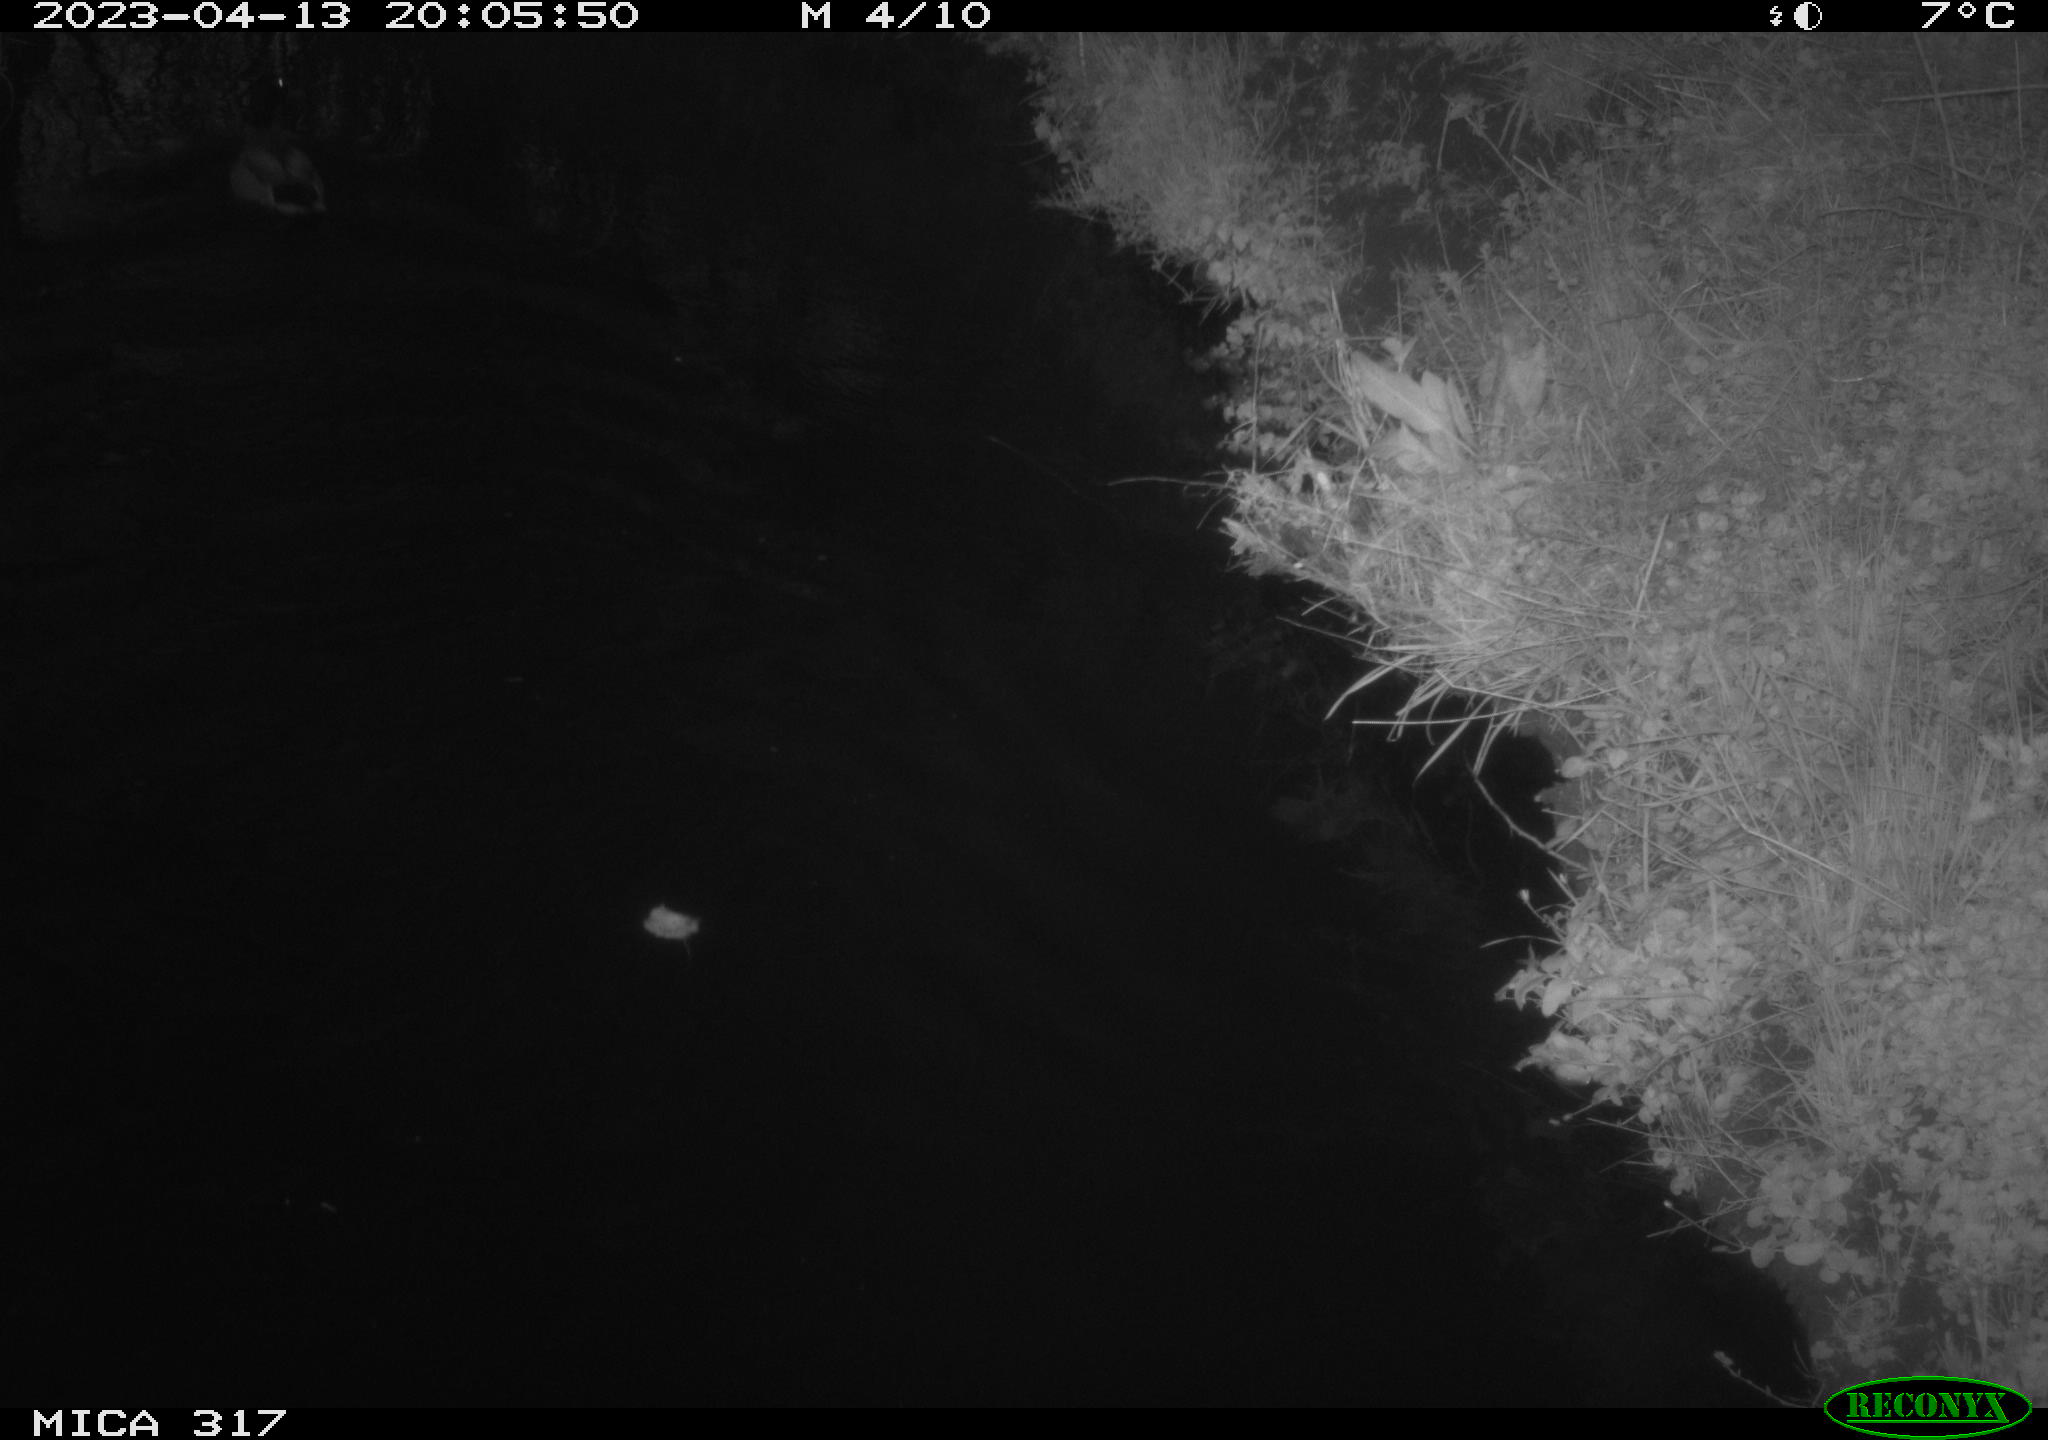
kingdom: Animalia
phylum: Chordata
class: Aves
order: Anseriformes
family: Anatidae
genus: Anas
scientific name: Anas
